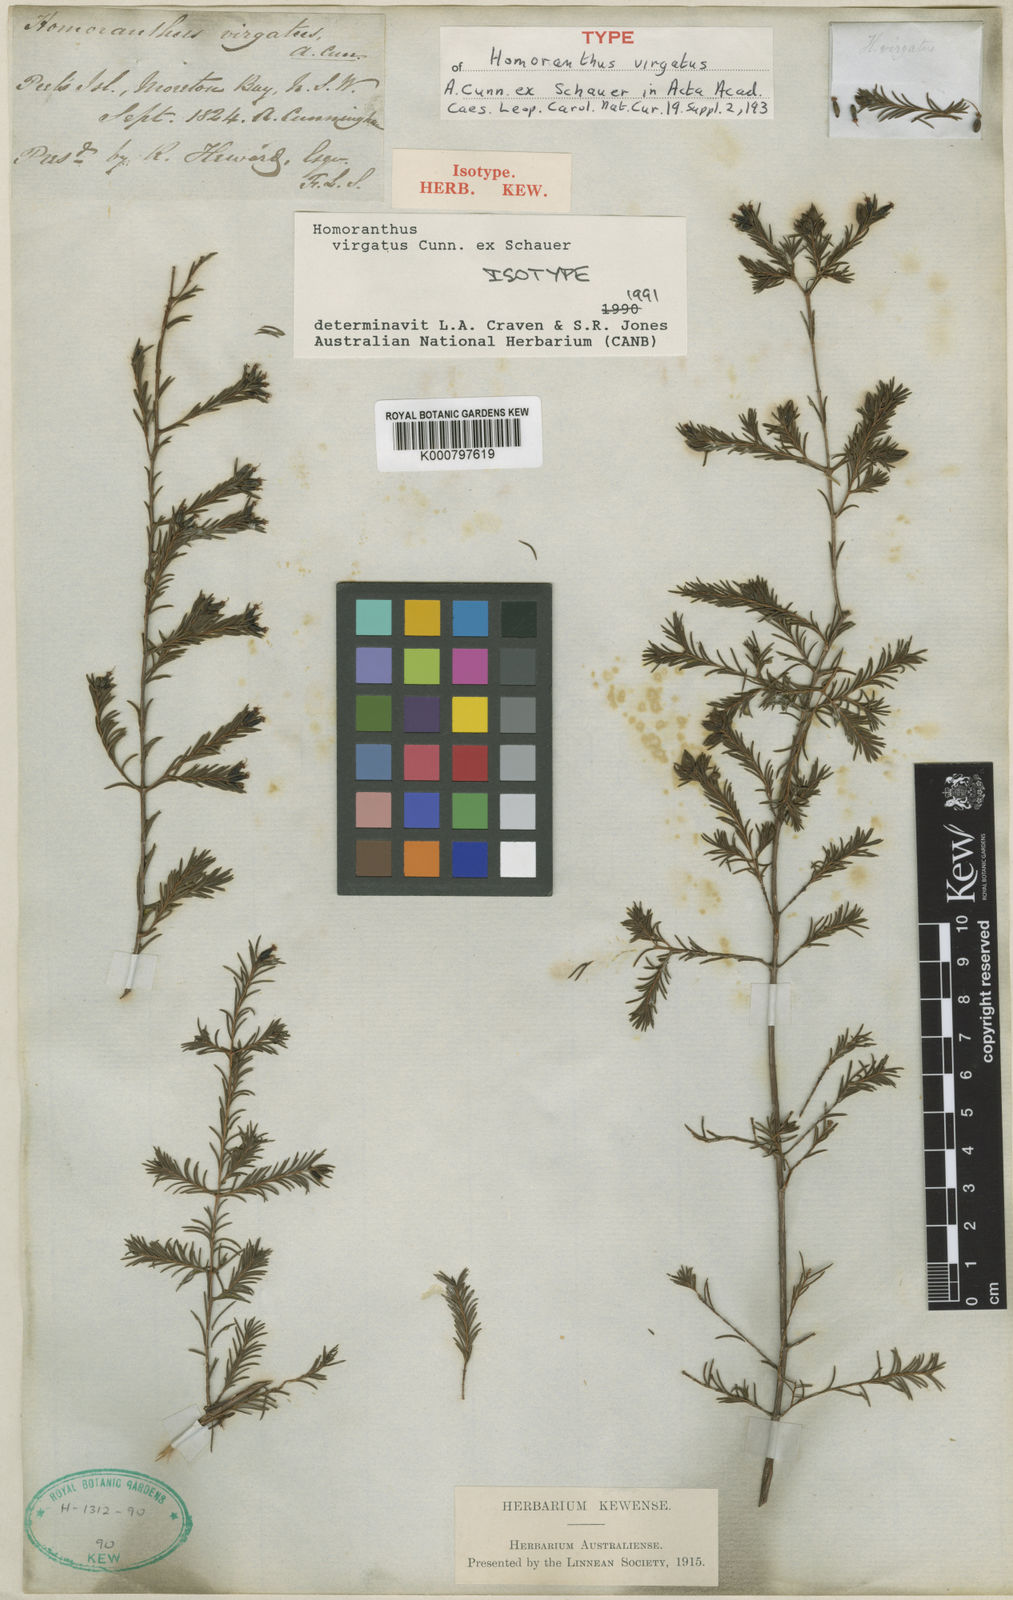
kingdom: Plantae
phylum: Tracheophyta
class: Magnoliopsida
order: Myrtales
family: Myrtaceae
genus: Homoranthus
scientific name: Homoranthus virgatus
